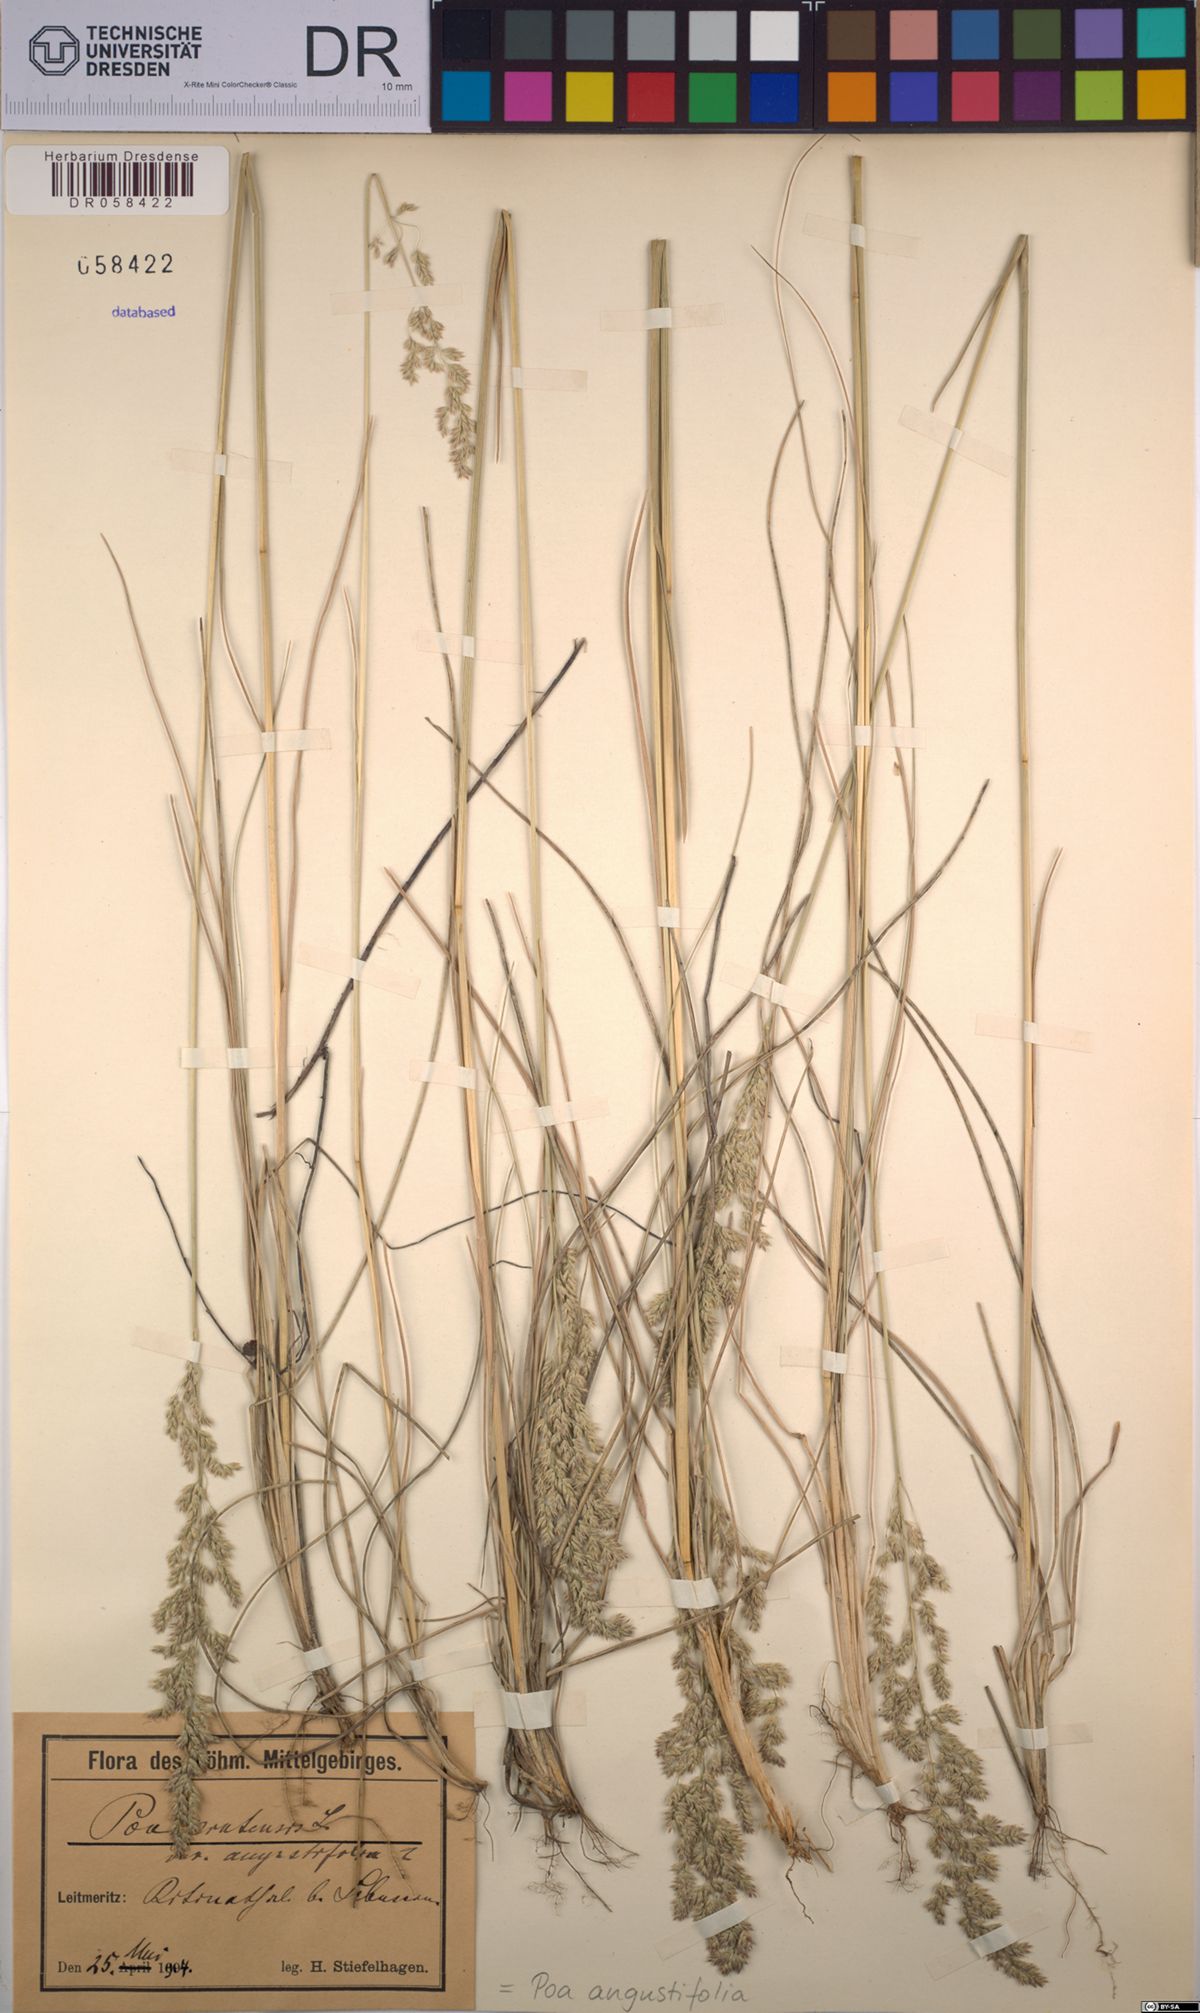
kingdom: Plantae
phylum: Tracheophyta
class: Liliopsida
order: Poales
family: Poaceae
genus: Poa
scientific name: Poa angustifolia
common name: Narrow-leaved meadow-grass
